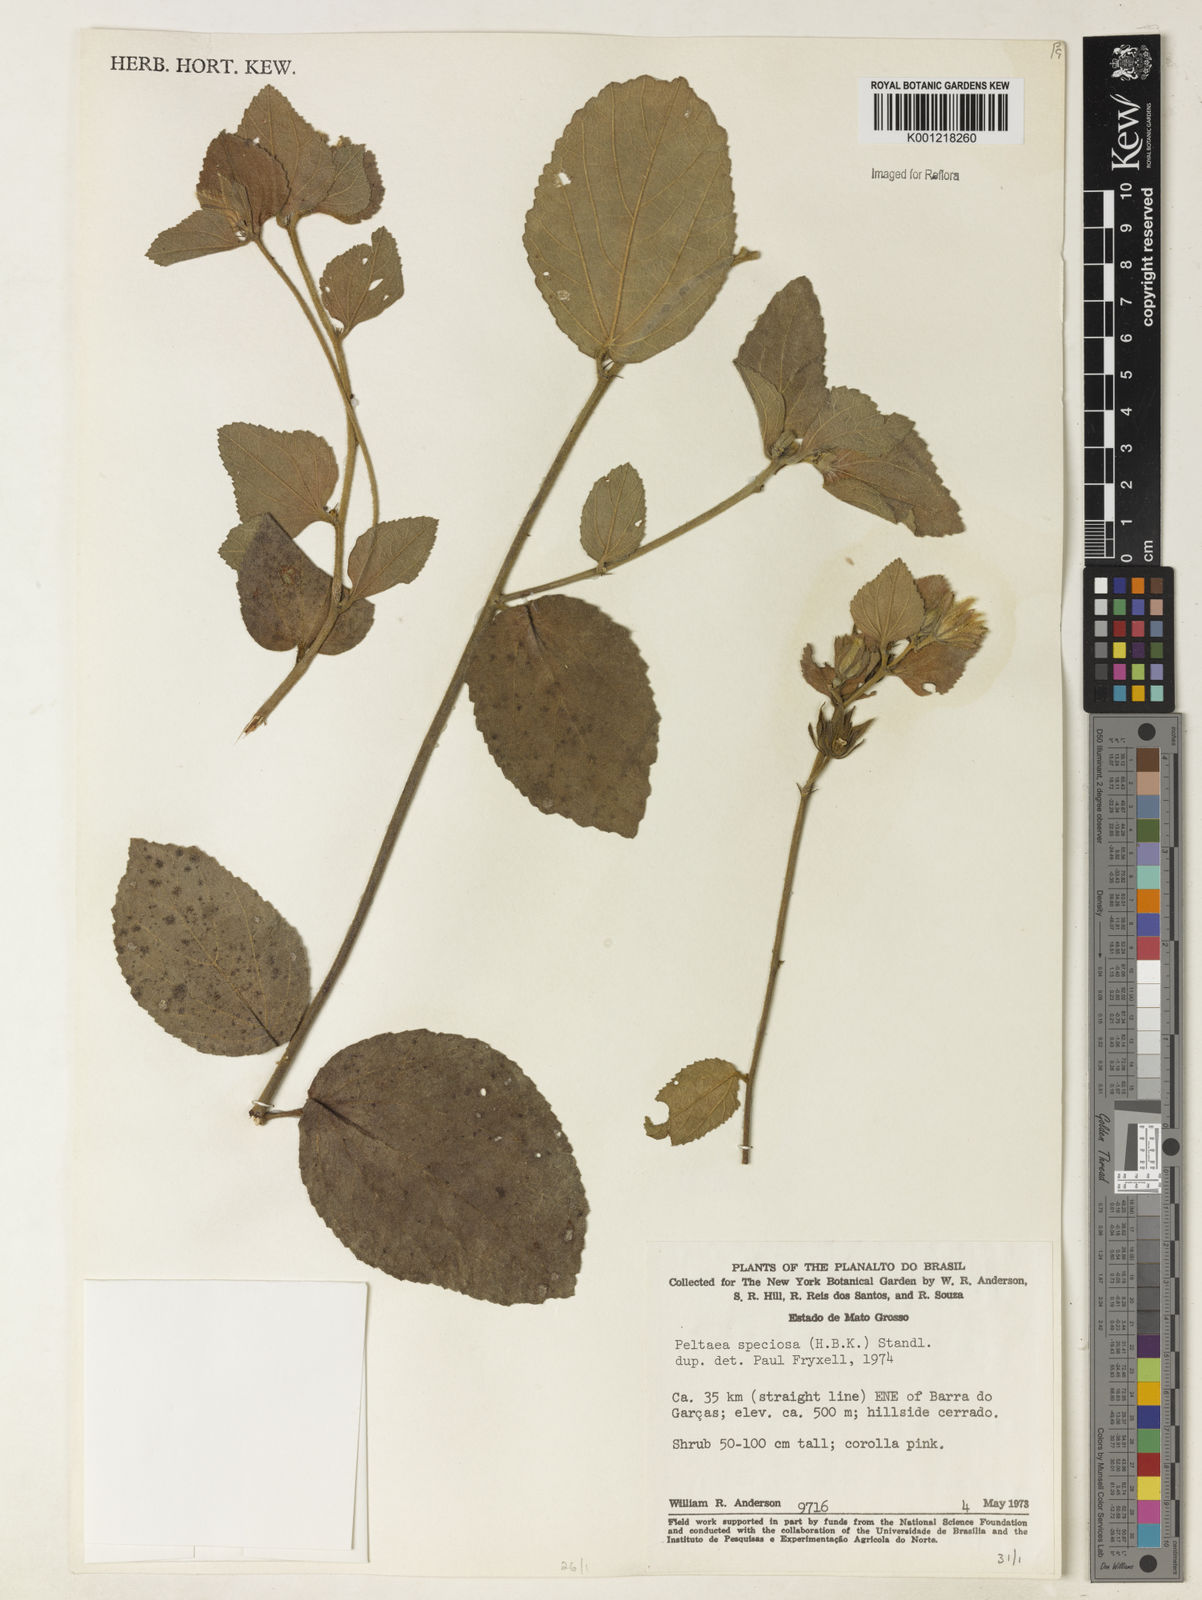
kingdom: Plantae
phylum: Tracheophyta
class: Magnoliopsida
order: Malvales
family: Malvaceae
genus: Peltaea
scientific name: Peltaea speciosa
